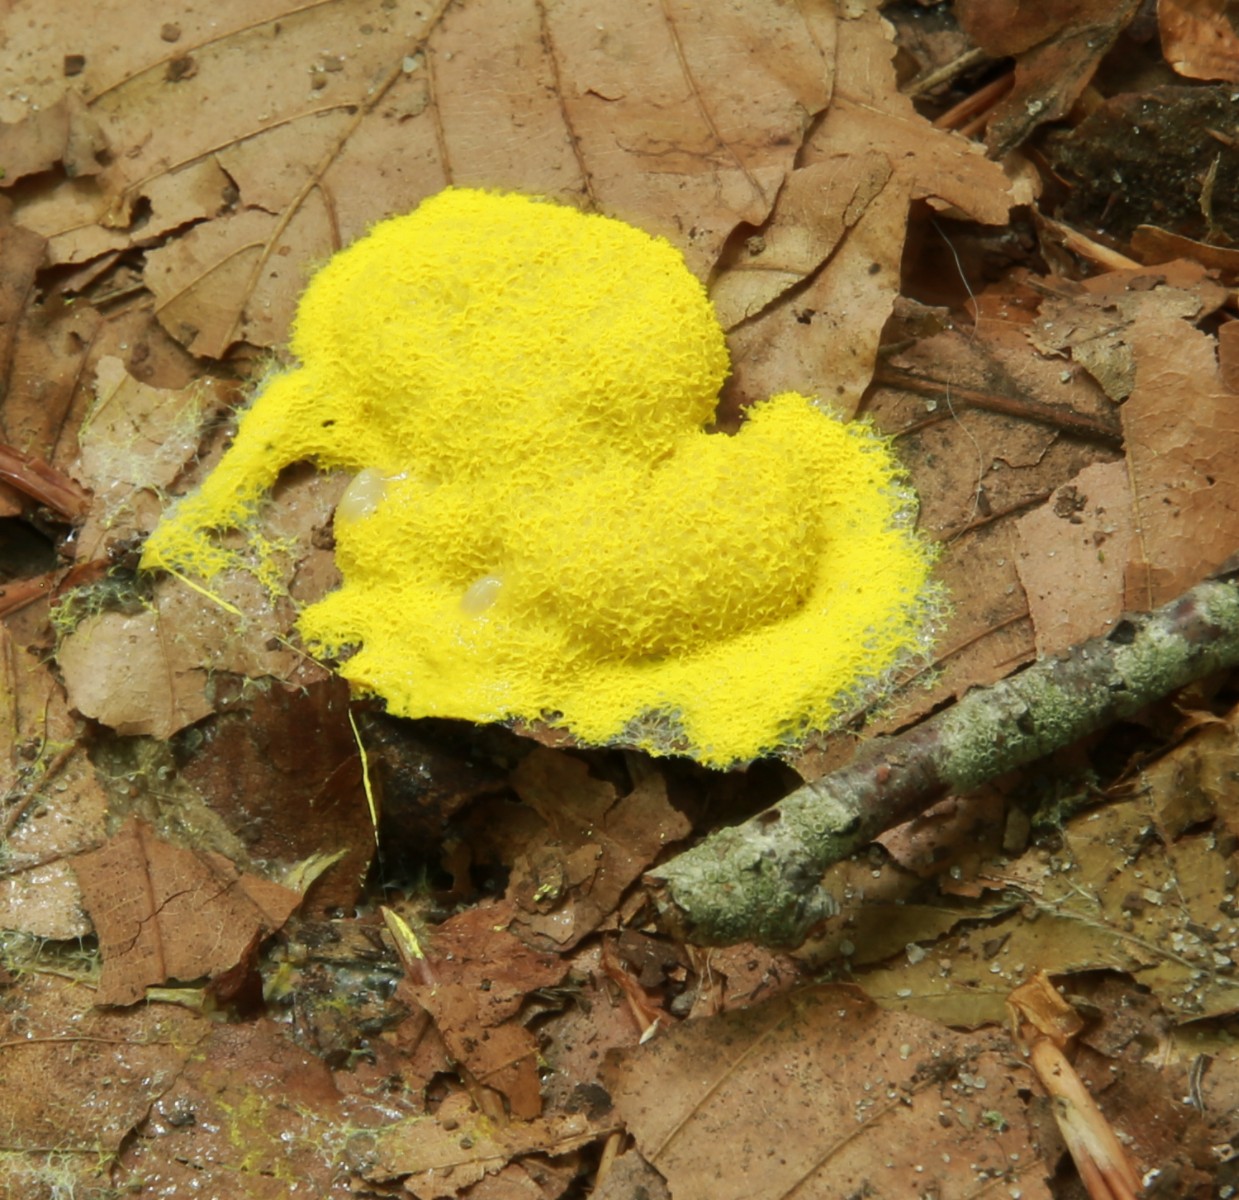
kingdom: Protozoa
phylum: Mycetozoa
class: Myxomycetes
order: Physarales
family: Physaraceae
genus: Fuligo
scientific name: Fuligo septica
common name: gul troldsmør
